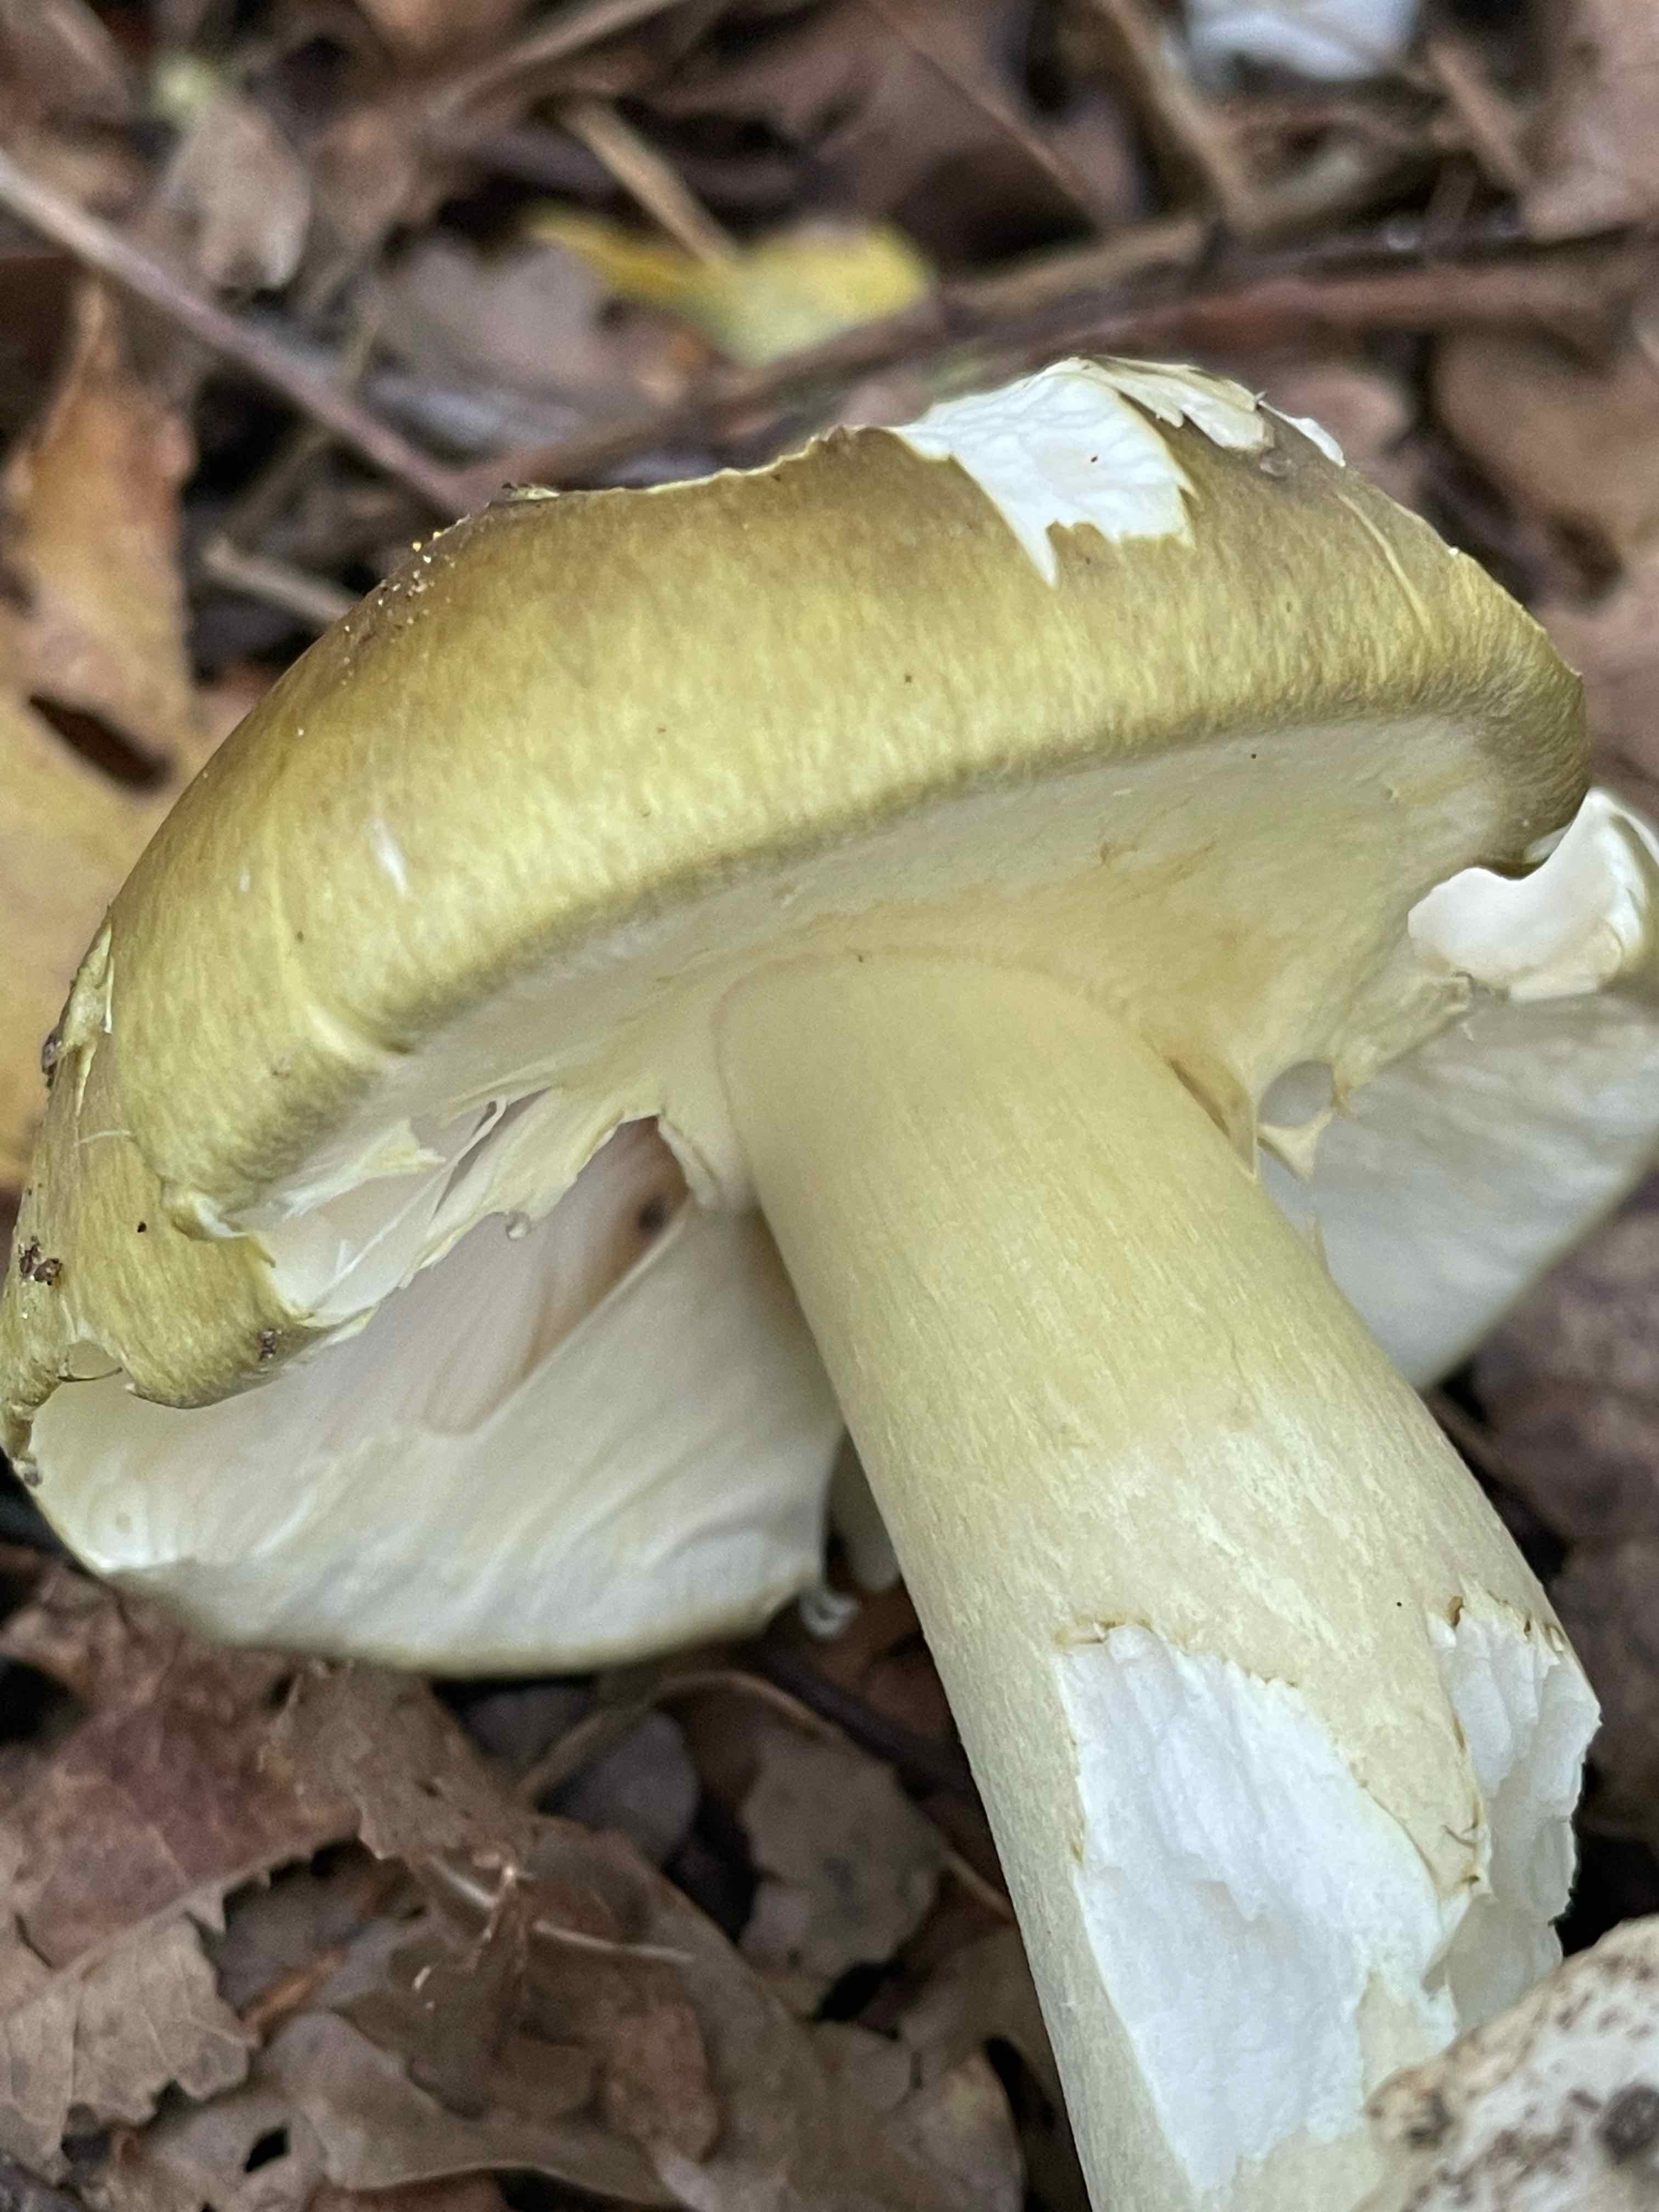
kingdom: Fungi
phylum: Basidiomycota
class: Agaricomycetes
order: Agaricales
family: Amanitaceae
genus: Amanita
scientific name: Amanita phalloides
